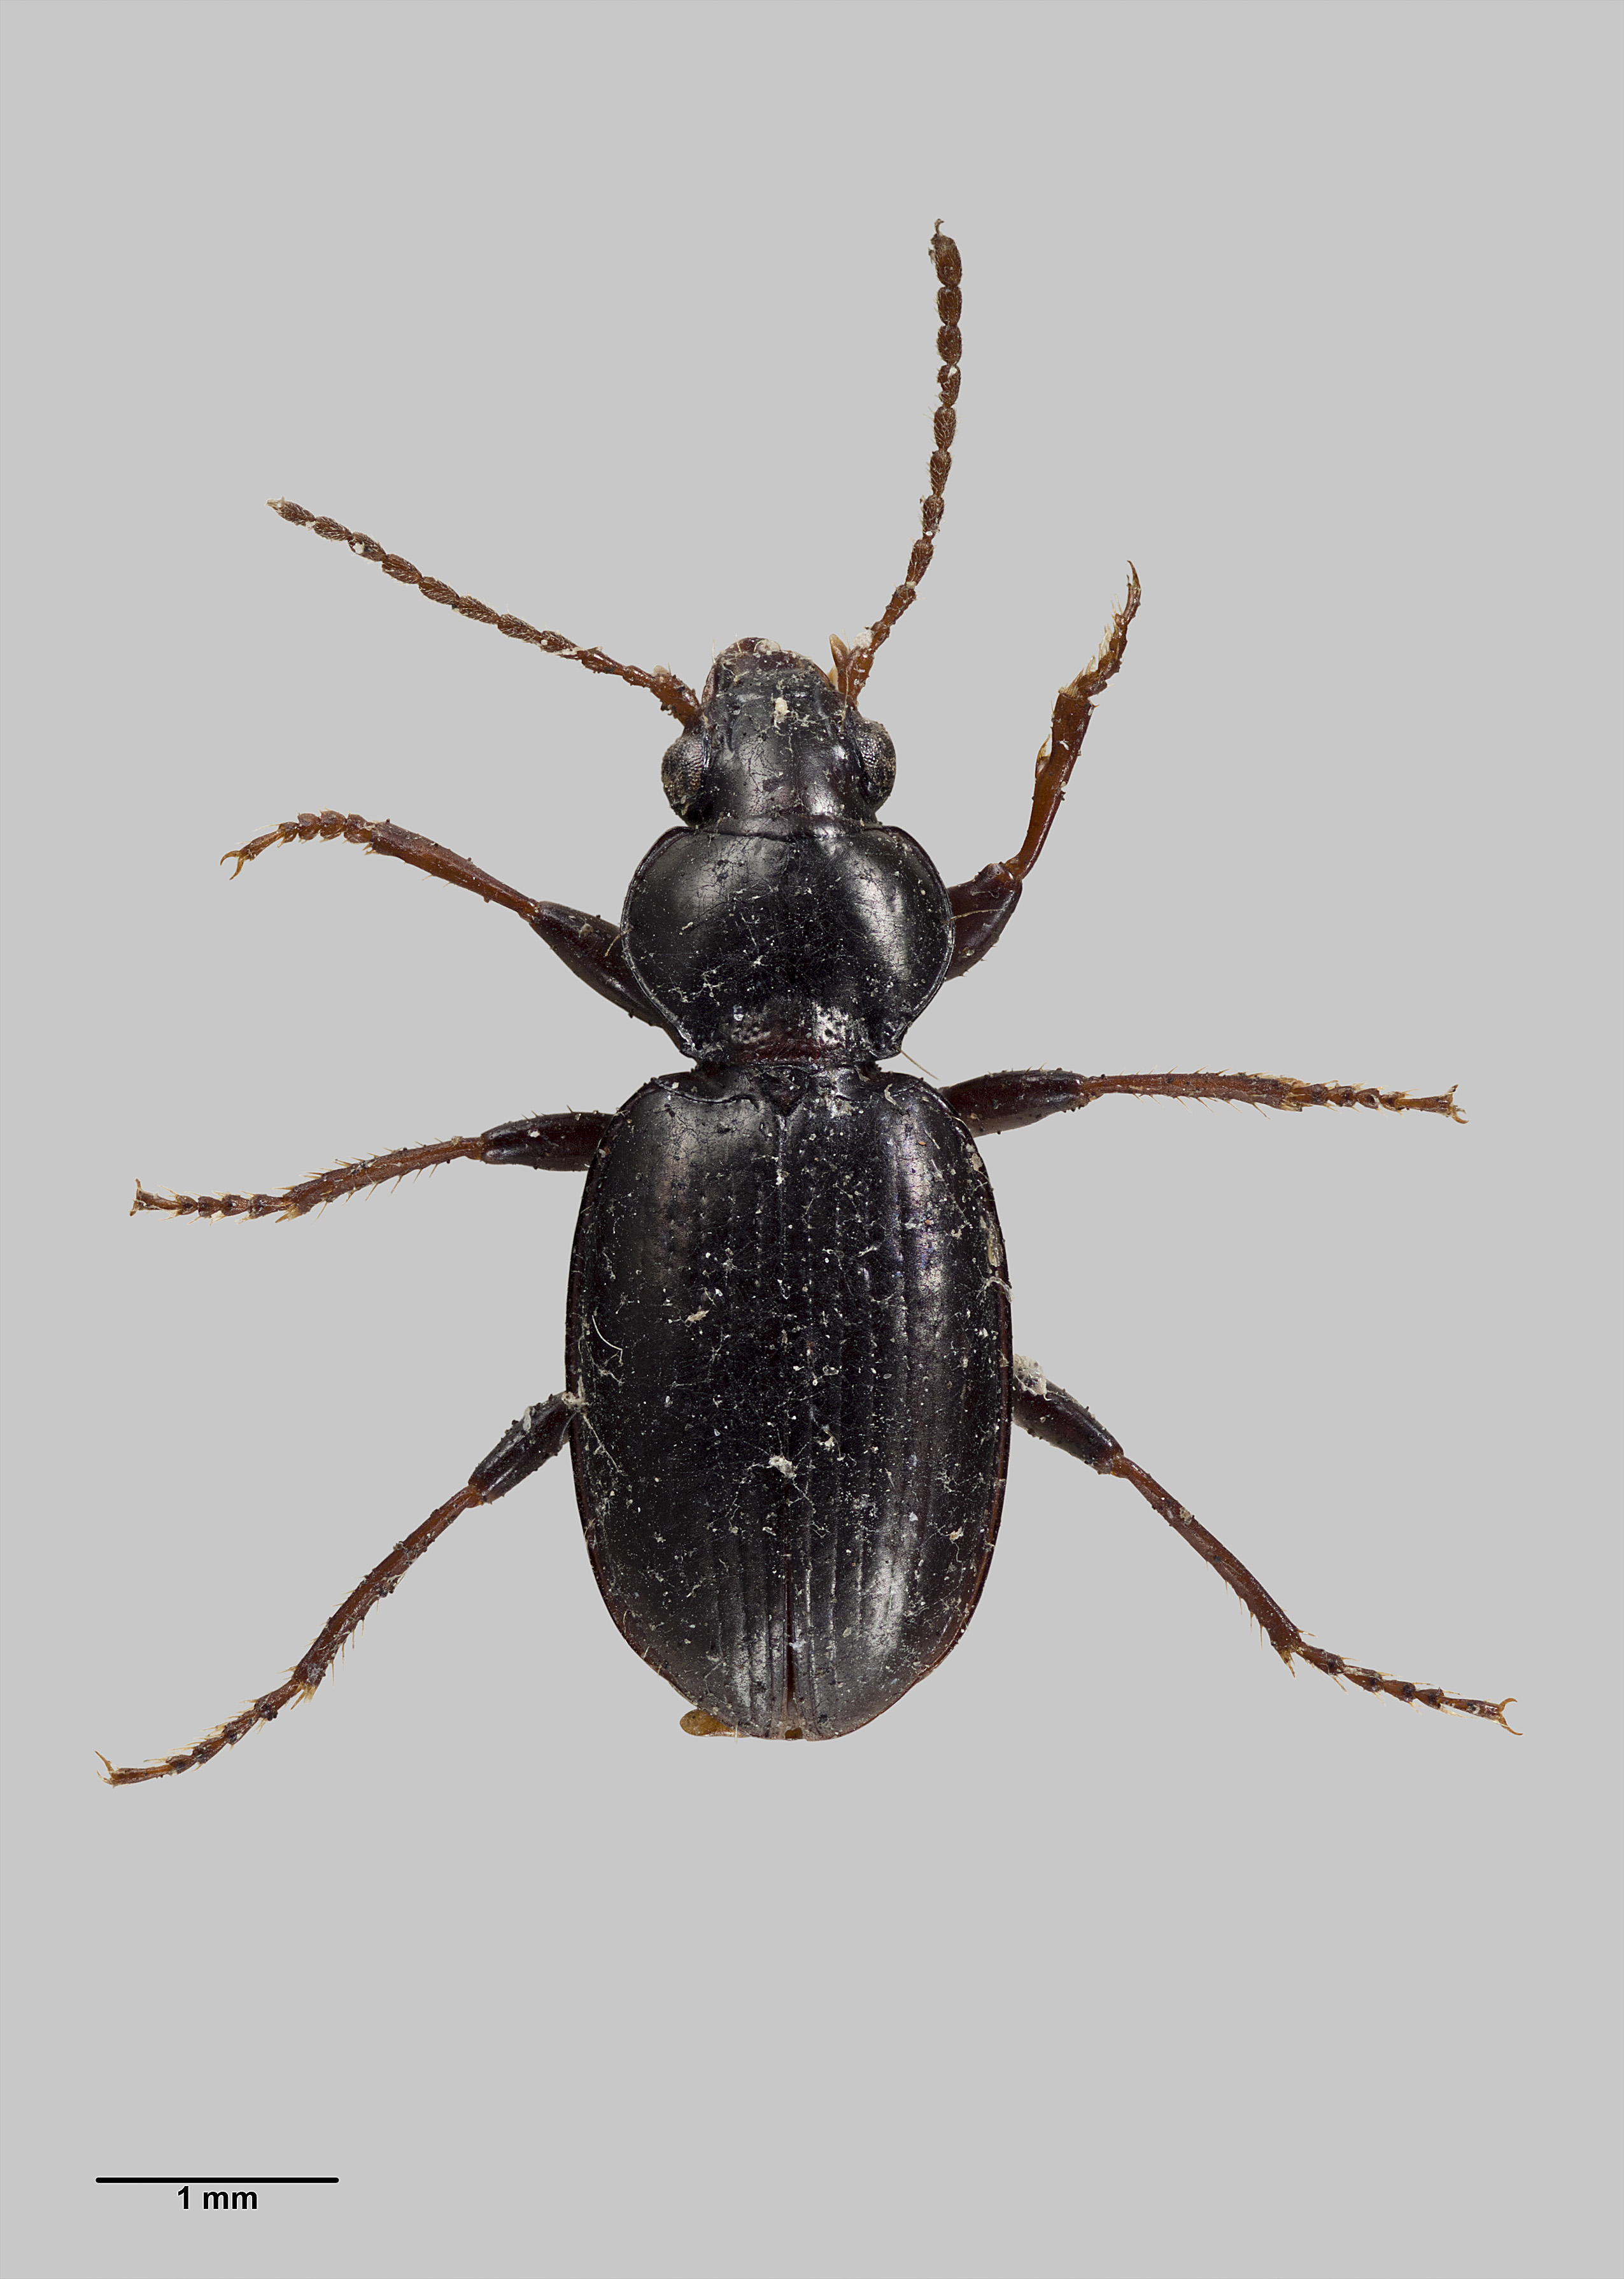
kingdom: Animalia
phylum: Arthropoda
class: Insecta
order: Coleoptera
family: Carabidae
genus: Mecyclothorax
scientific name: Mecyclothorax otagoensis
